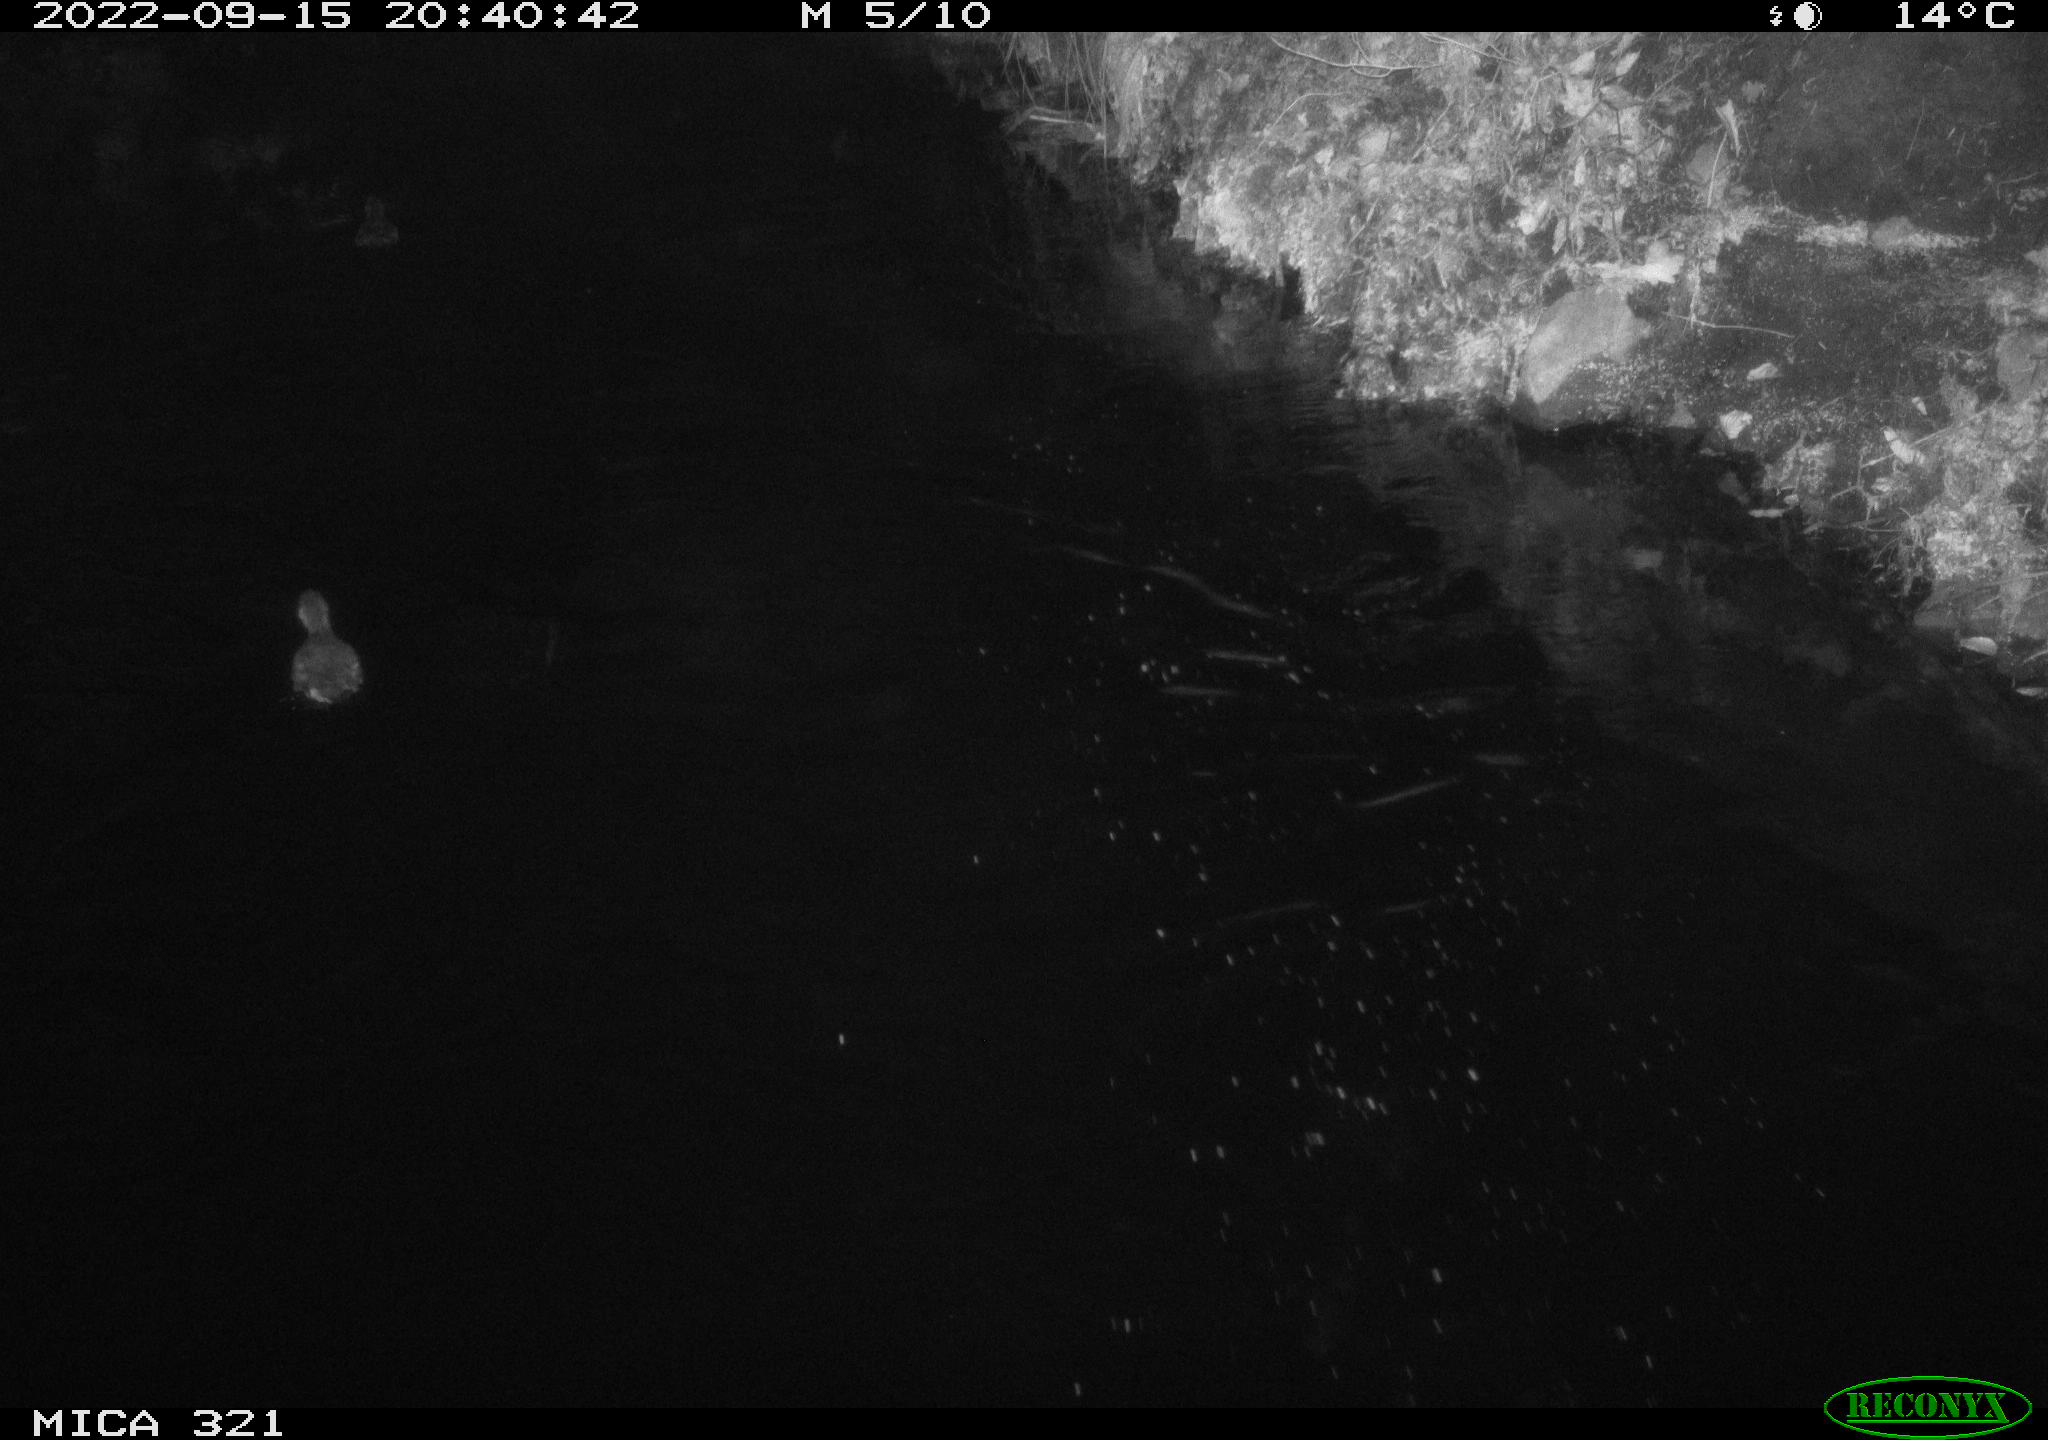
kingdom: Animalia
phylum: Chordata
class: Aves
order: Gruiformes
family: Rallidae
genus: Fulica
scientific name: Fulica atra
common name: Eurasian coot
